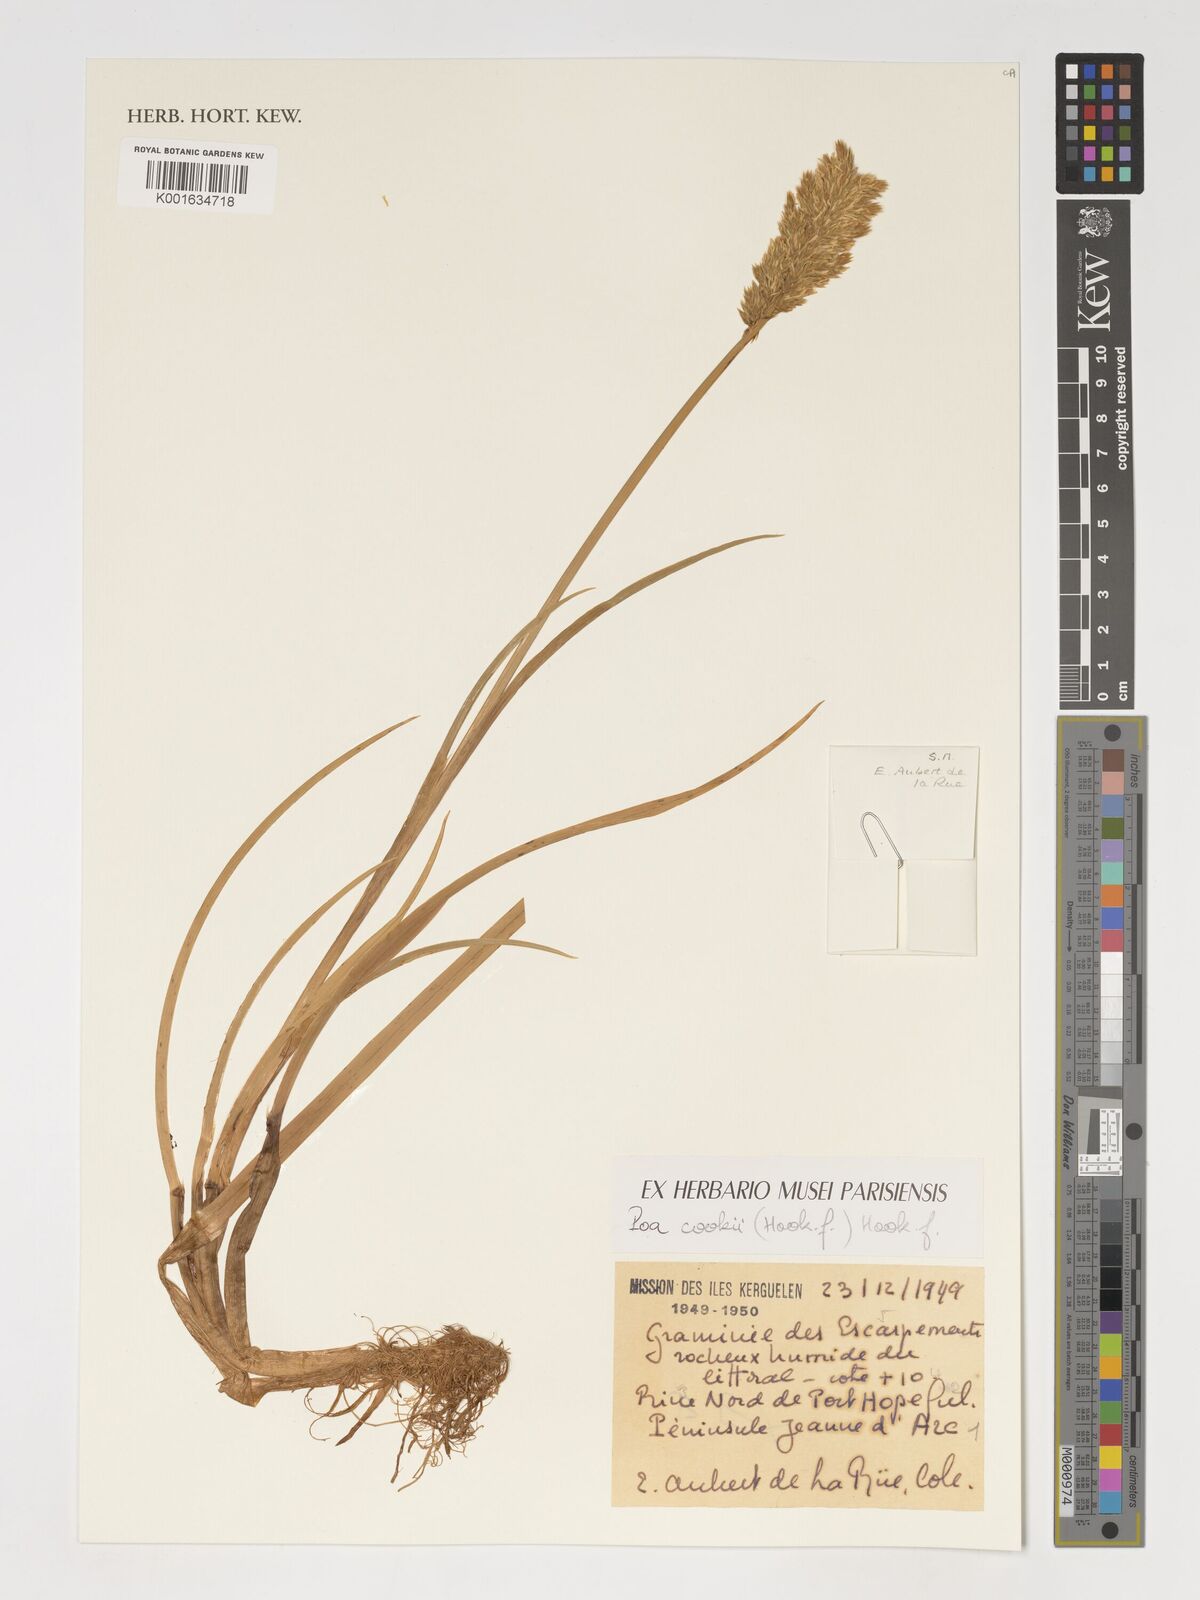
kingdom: Plantae
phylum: Tracheophyta
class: Liliopsida
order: Poales
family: Poaceae
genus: Poa
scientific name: Poa cookii
